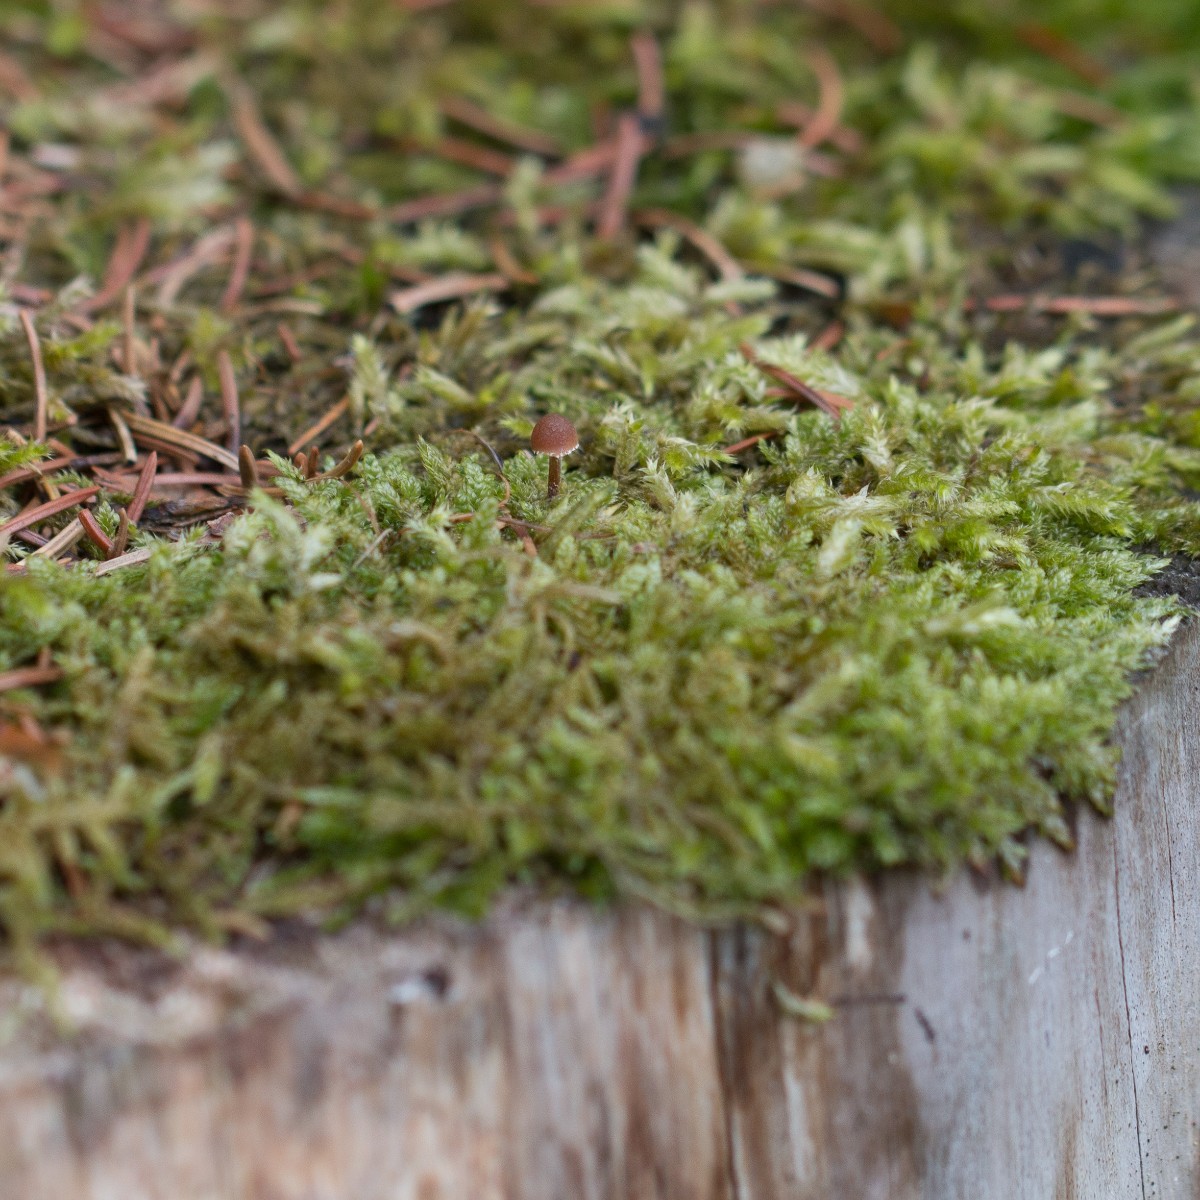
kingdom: Fungi
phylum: Basidiomycota
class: Agaricomycetes
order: Agaricales
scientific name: Agaricales
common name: champignonordenen
